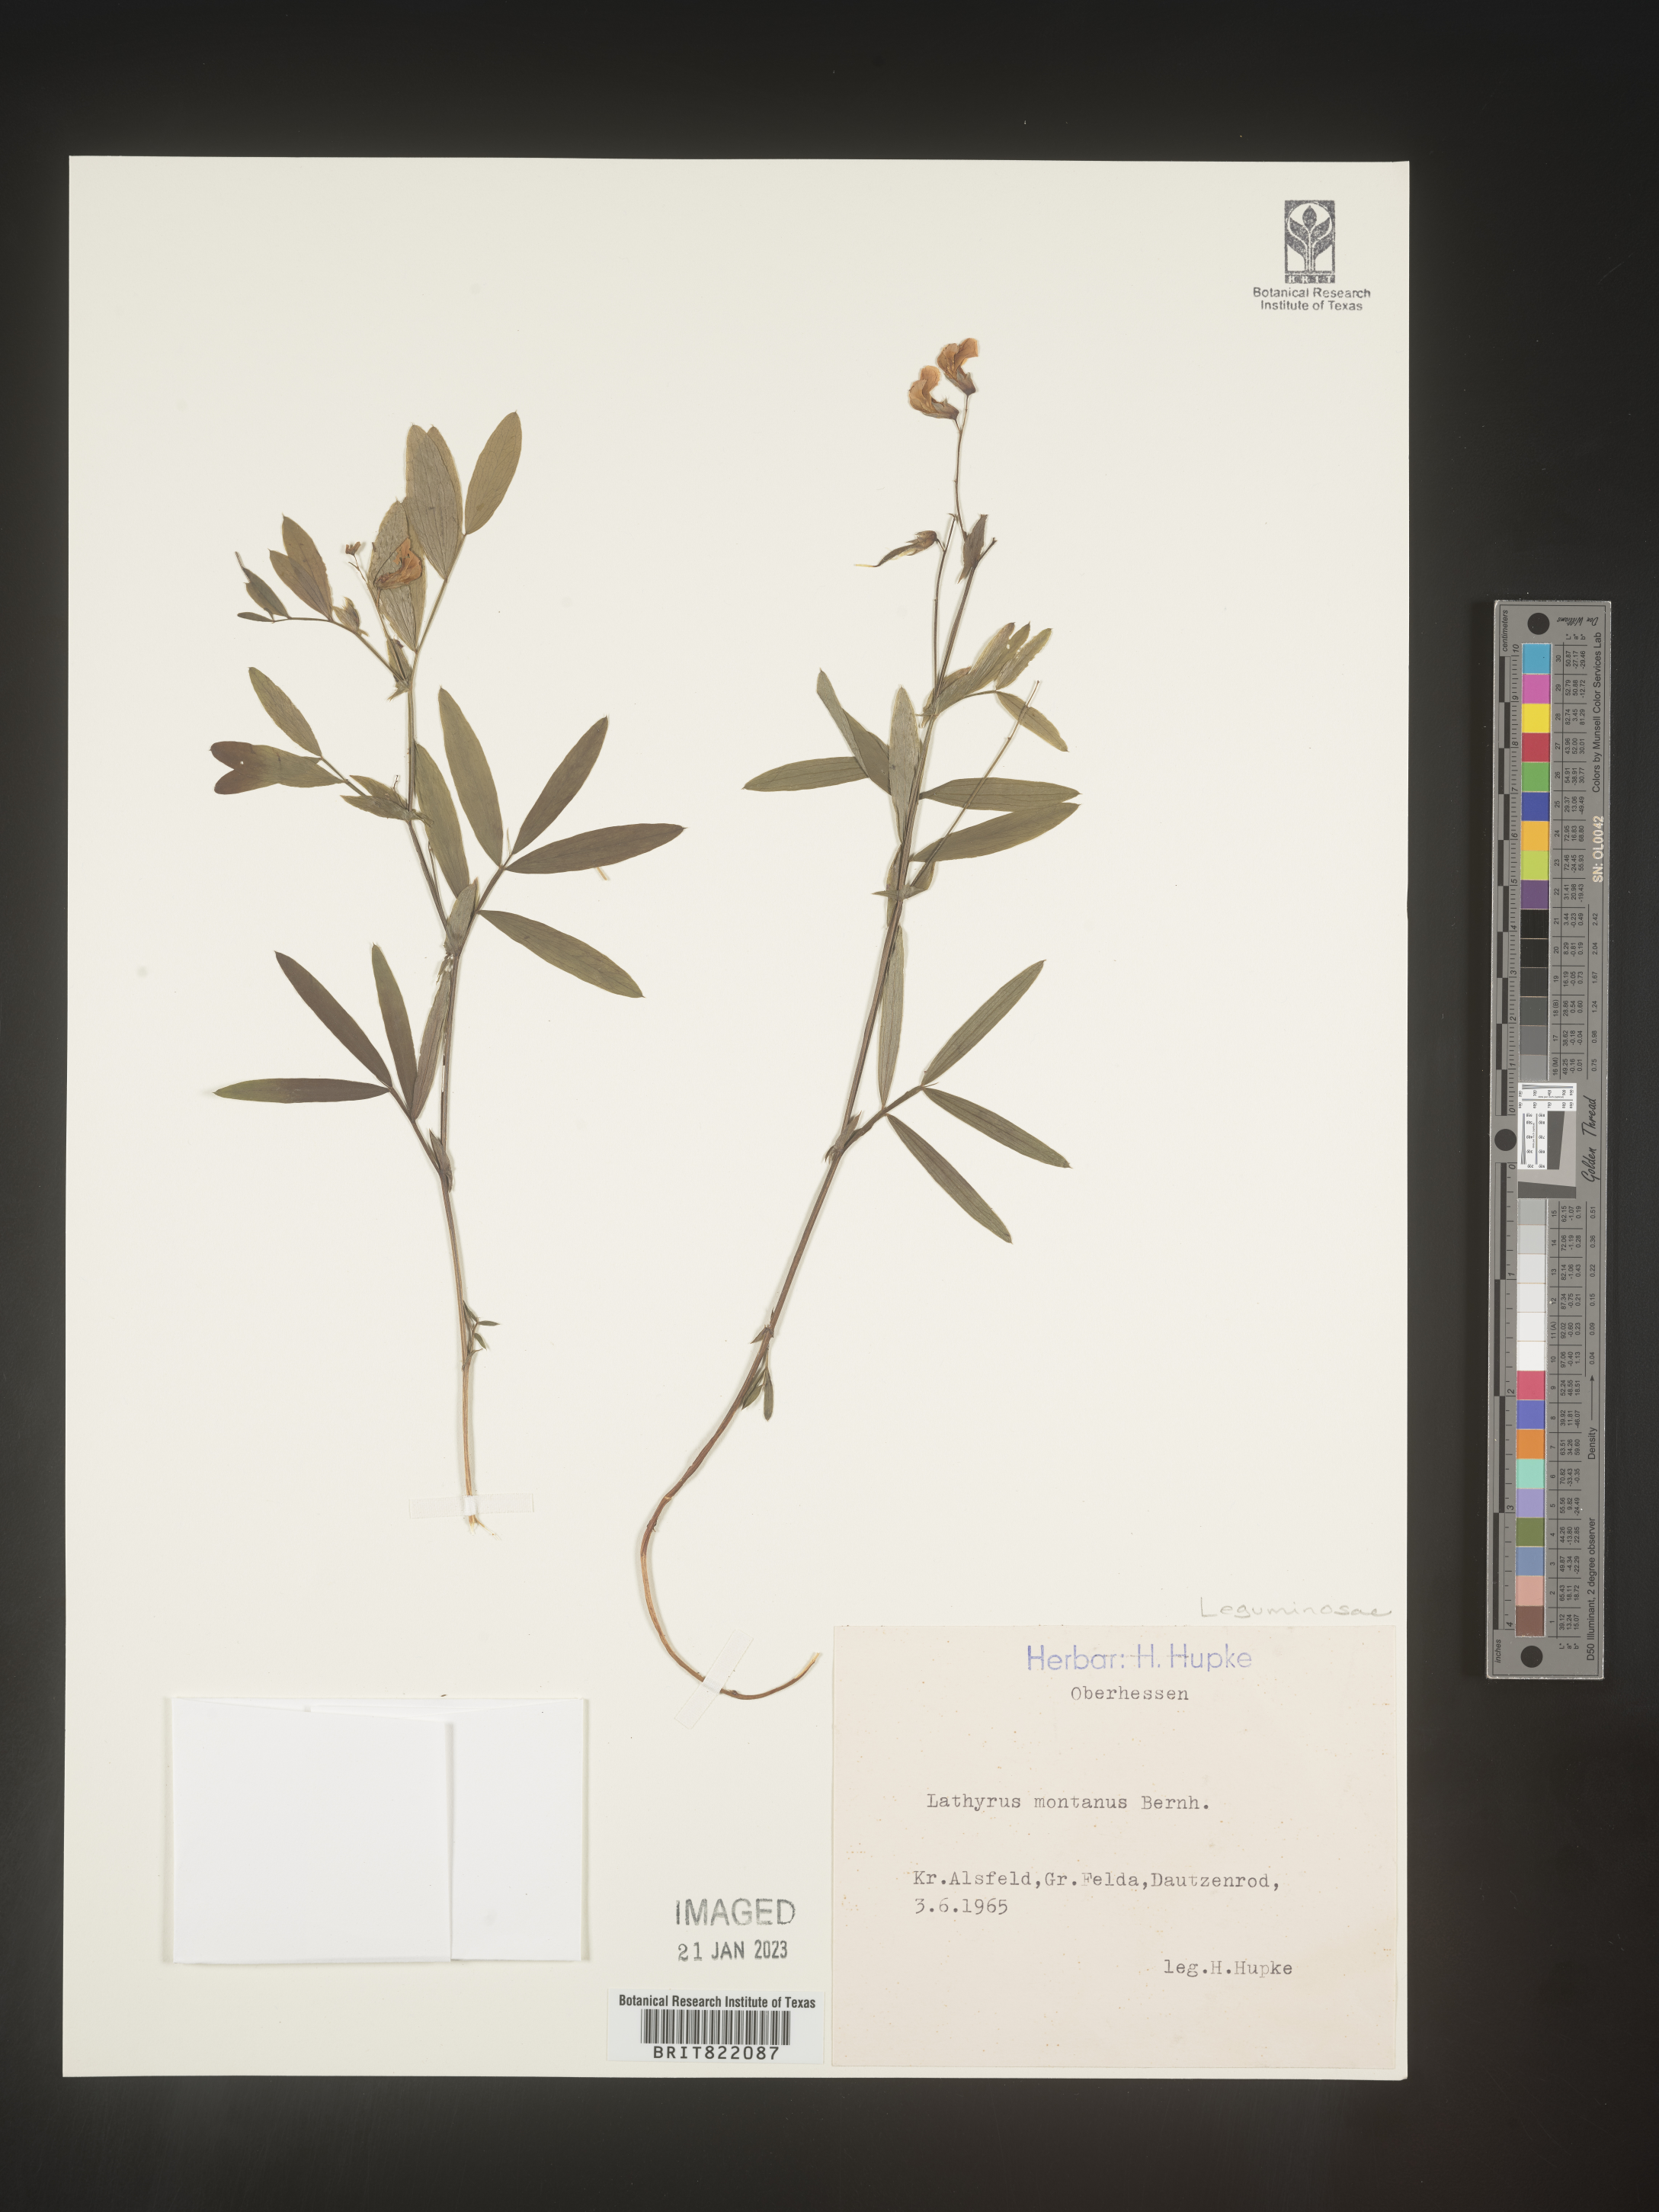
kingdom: Plantae
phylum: Tracheophyta
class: Magnoliopsida
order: Fabales
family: Fabaceae
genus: Lathyrus
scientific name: Lathyrus
